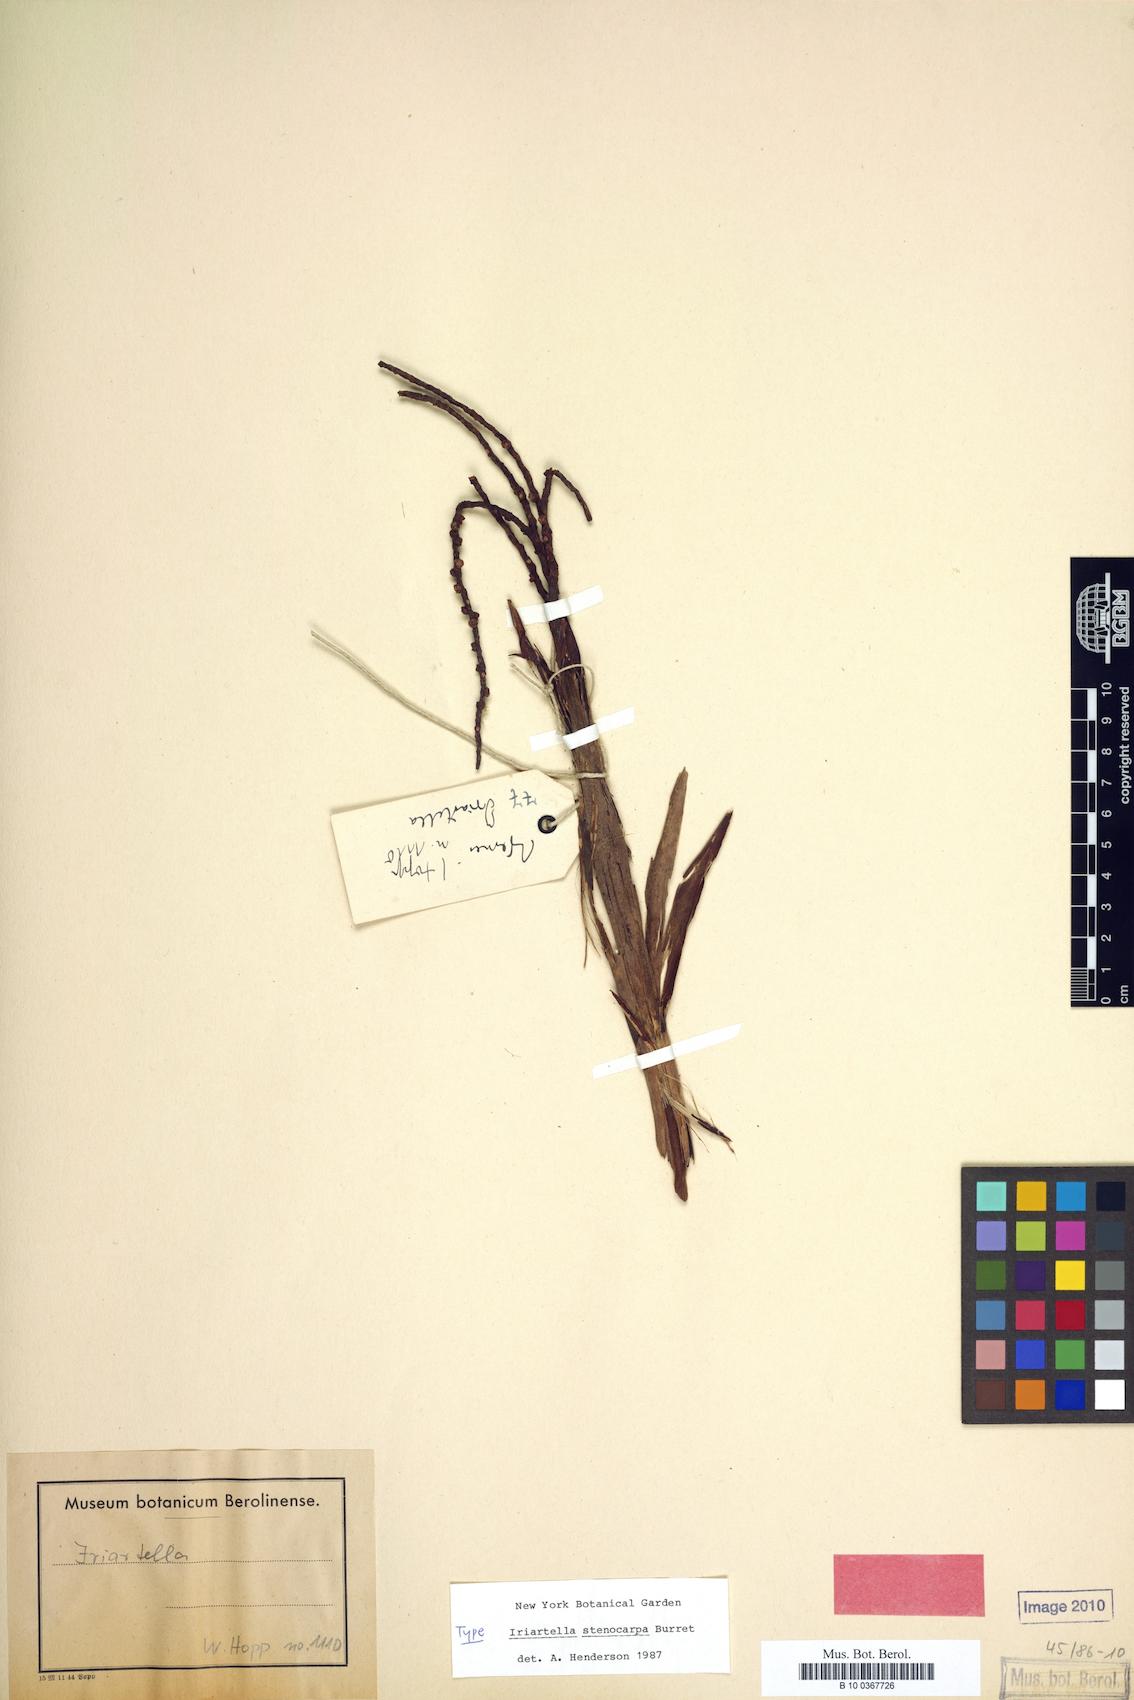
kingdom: Plantae
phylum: Tracheophyta
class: Liliopsida
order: Arecales
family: Arecaceae
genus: Iriartella
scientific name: Iriartella stenocarpa
